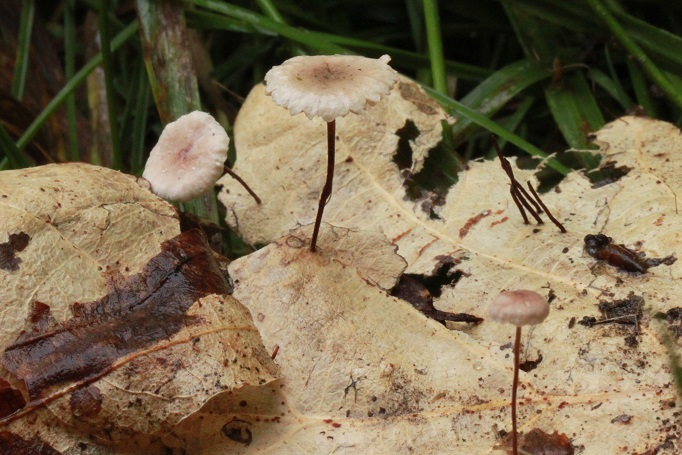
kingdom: Fungi
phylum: Basidiomycota
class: Agaricomycetes
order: Agaricales
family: Omphalotaceae
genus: Collybiopsis
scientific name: Collybiopsis quercophila
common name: egeblads-bruskhat
